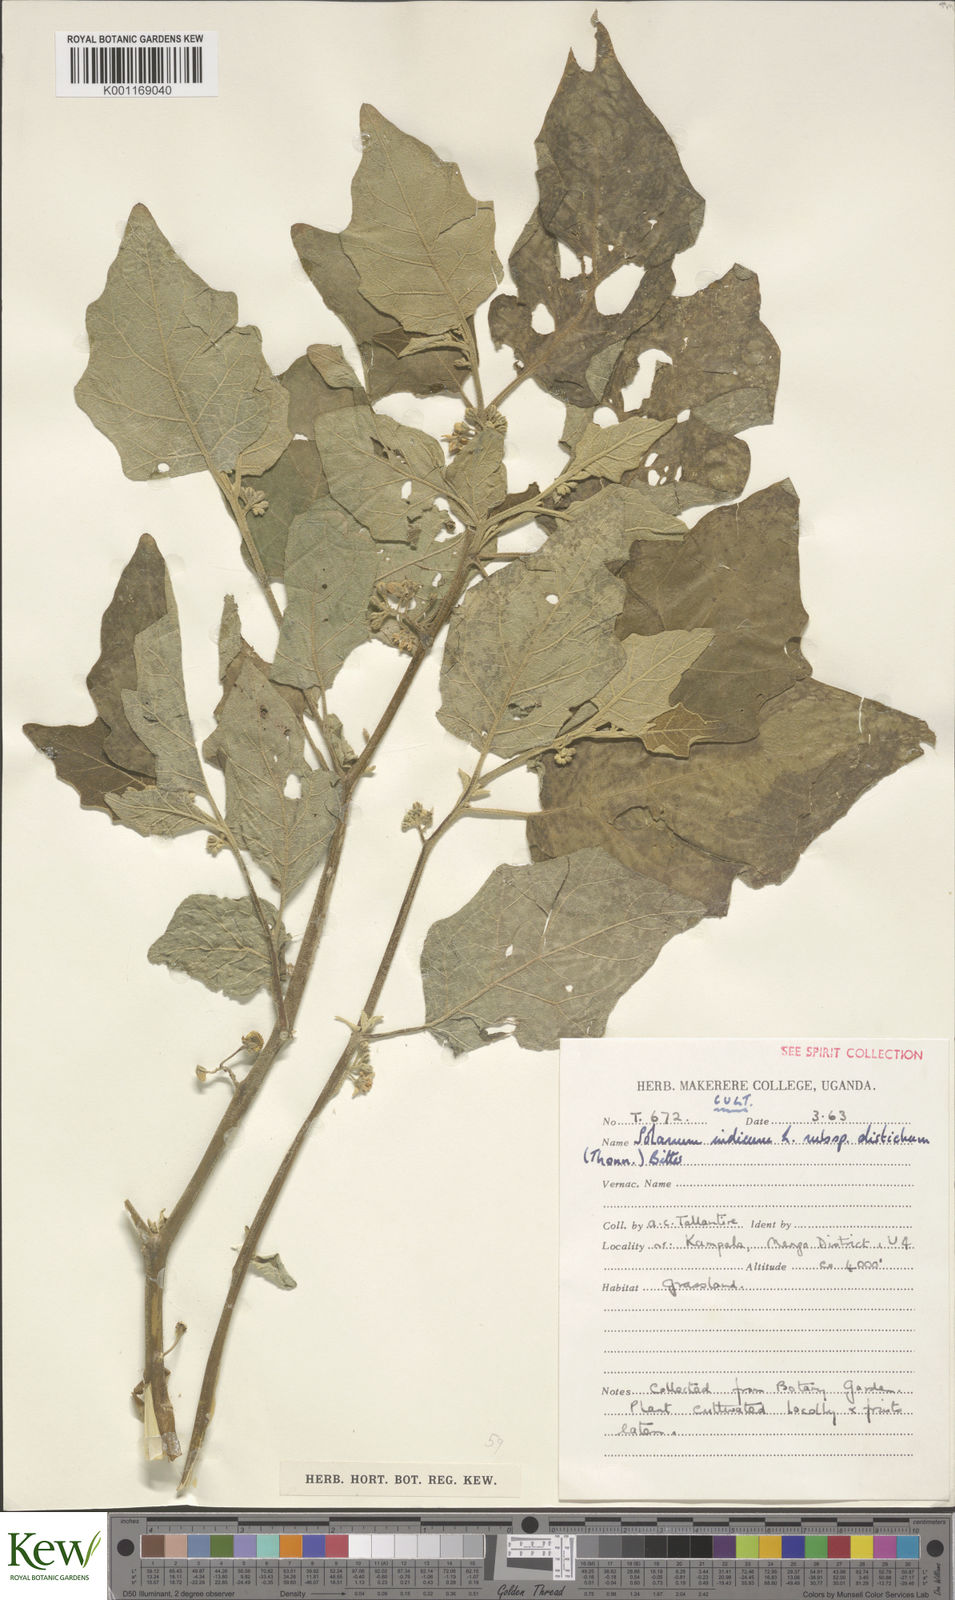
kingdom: Plantae
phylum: Tracheophyta
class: Magnoliopsida
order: Solanales
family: Solanaceae
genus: Solanum
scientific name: Solanum anguivi
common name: Forest bitterberry
